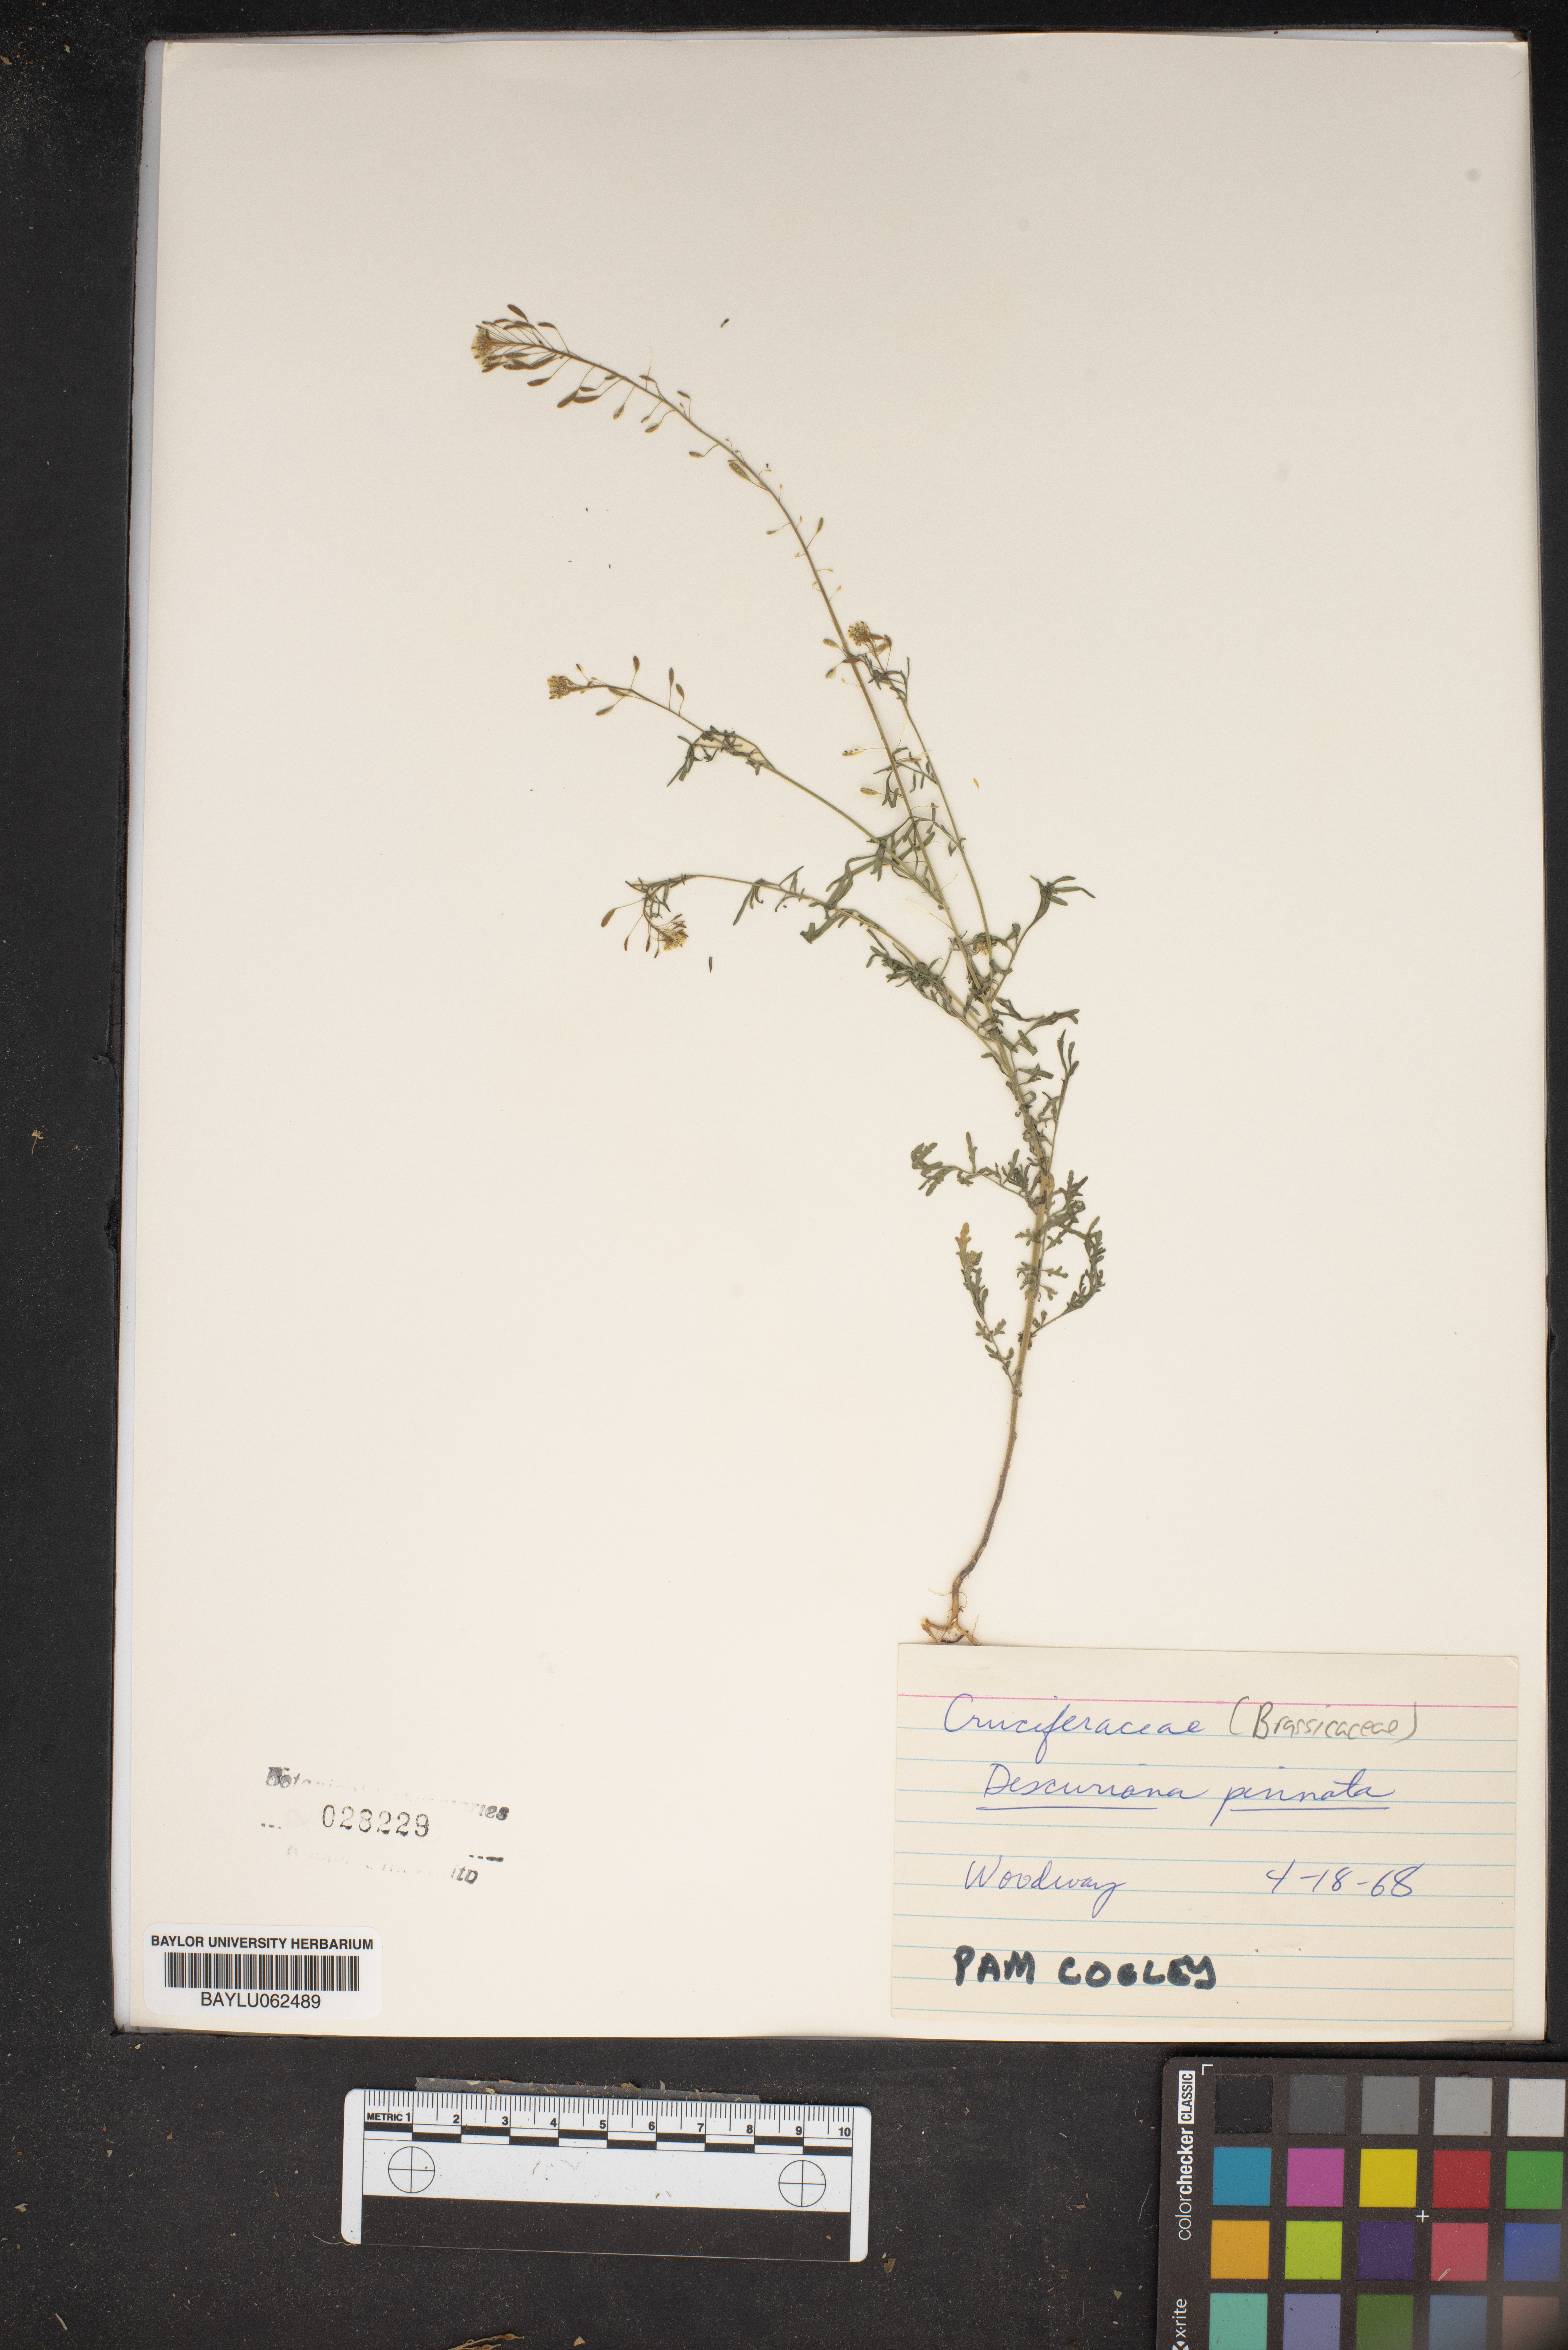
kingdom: Plantae
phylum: Tracheophyta
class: Magnoliopsida
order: Brassicales
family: Brassicaceae
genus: Descurainia
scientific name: Descurainia pinnata
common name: Western tansy mustard
